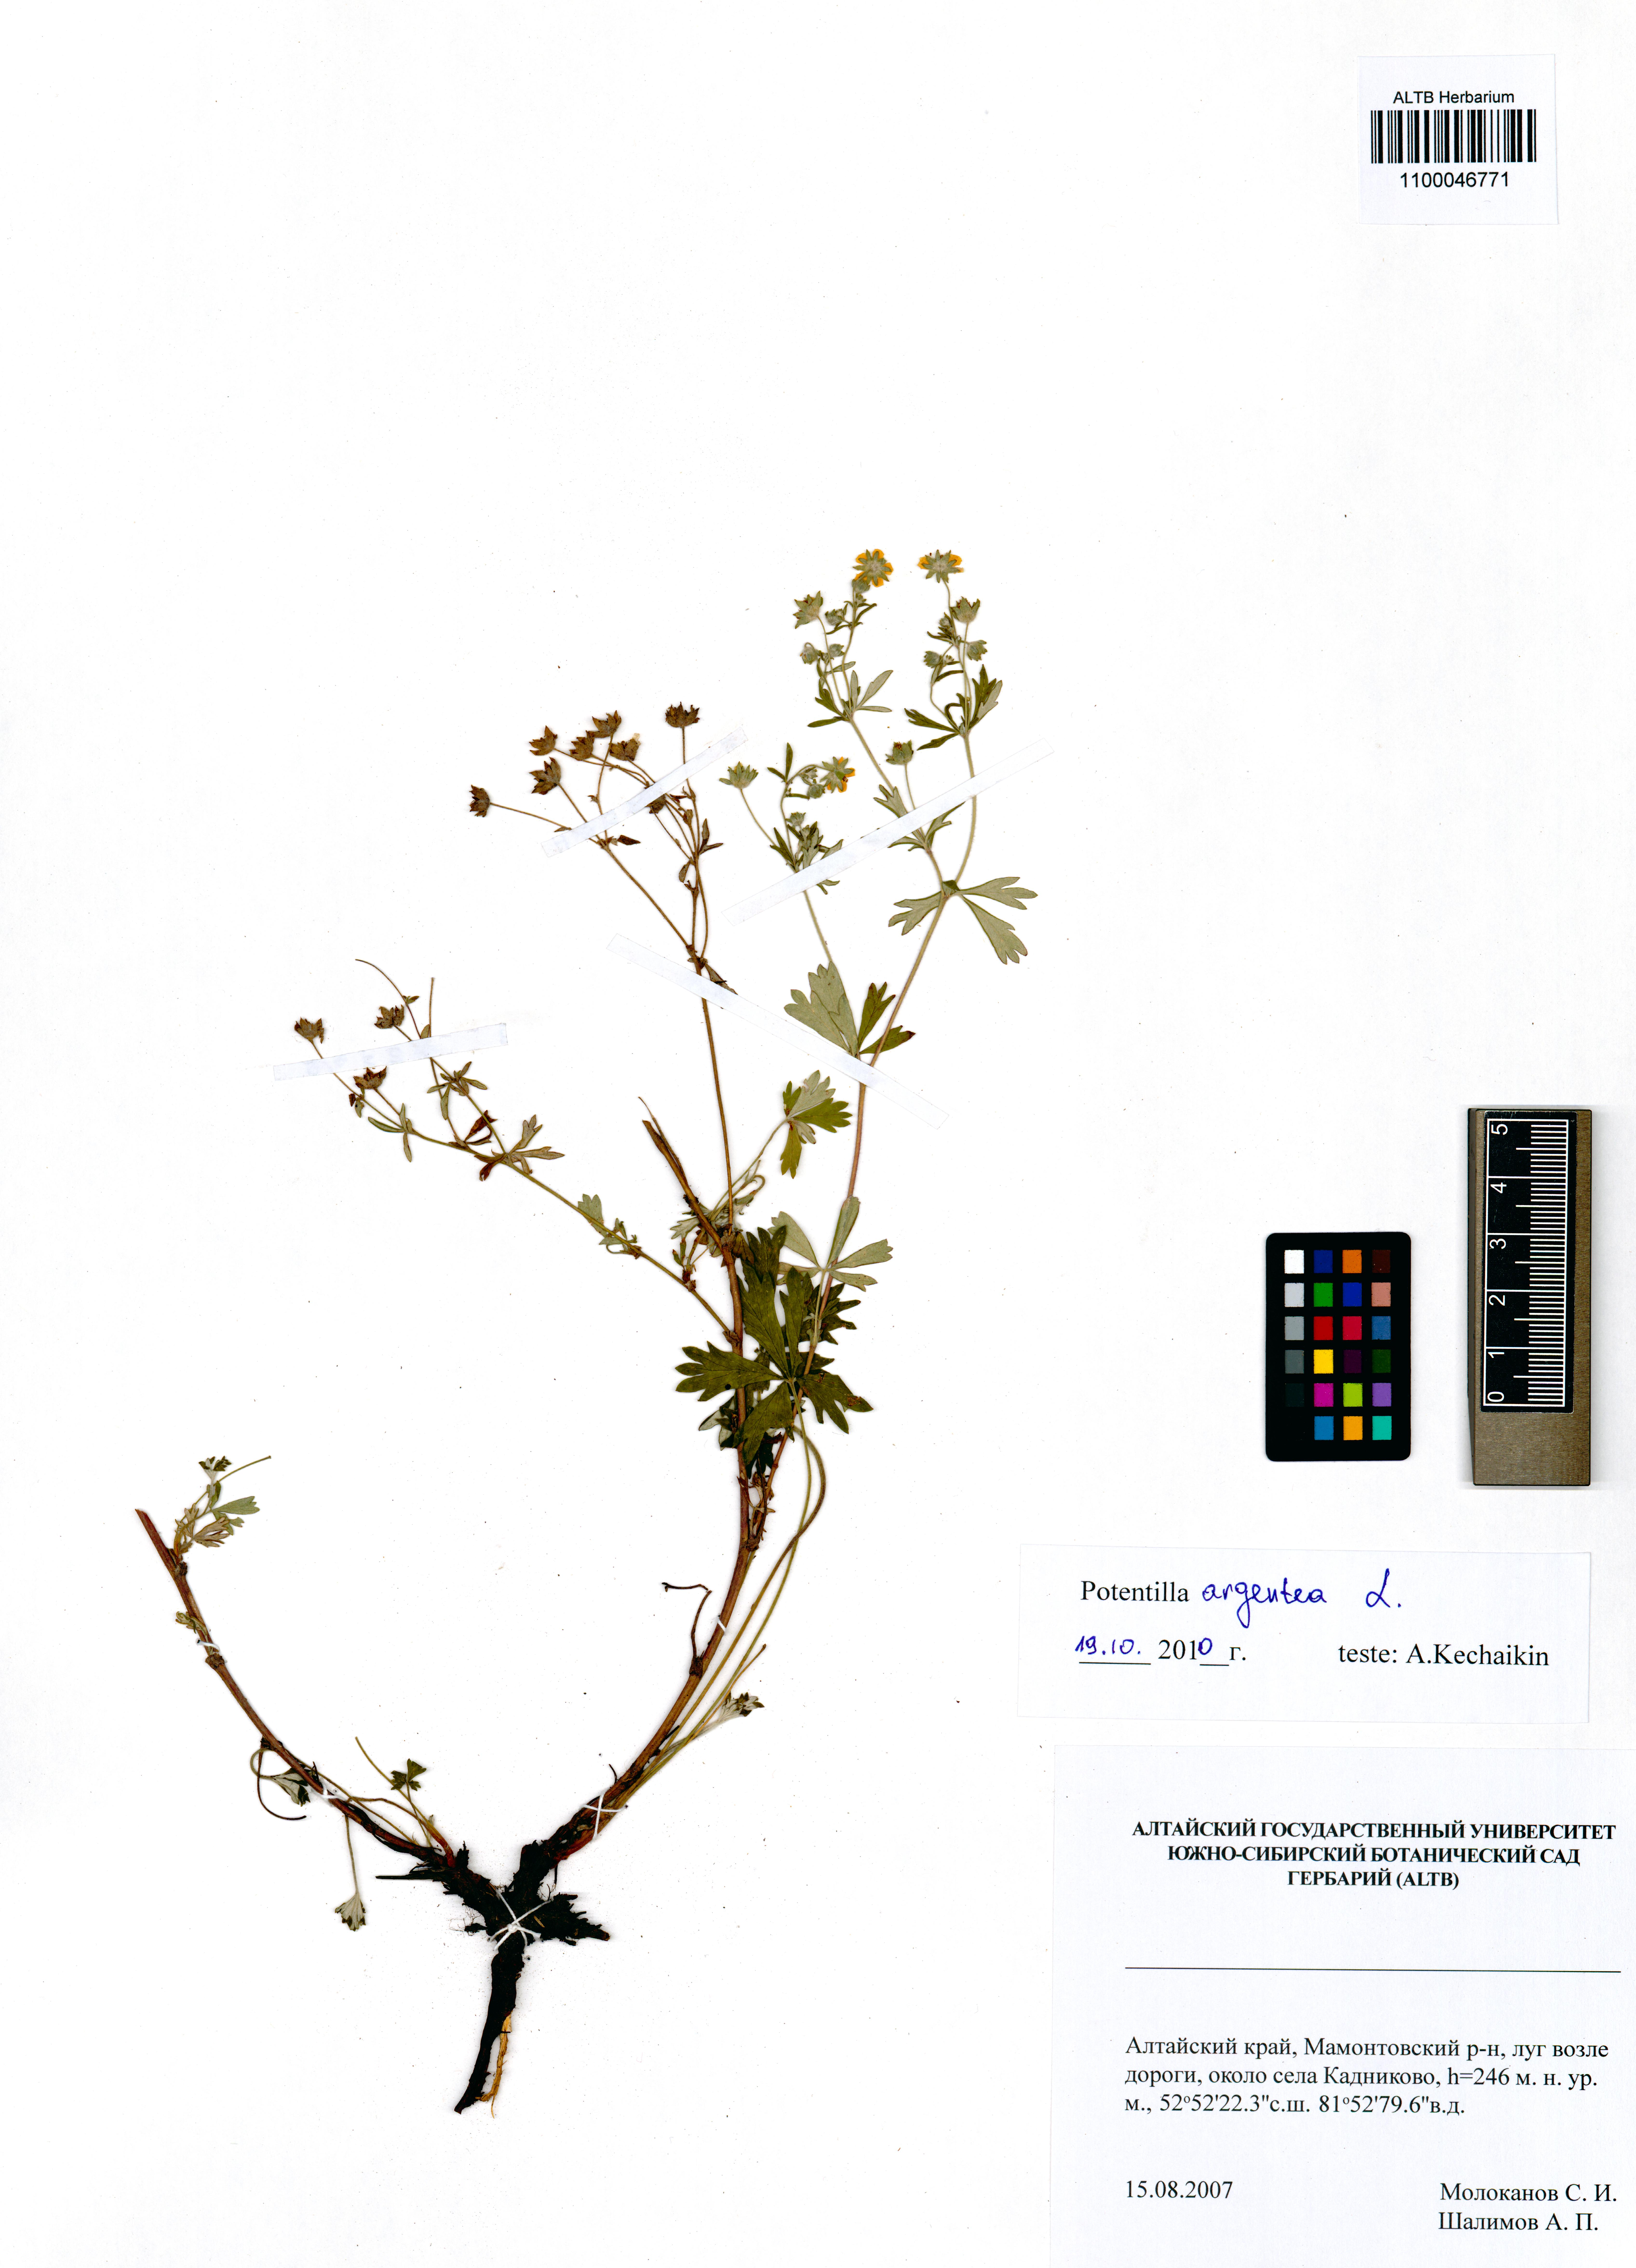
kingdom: Plantae
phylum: Tracheophyta
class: Magnoliopsida
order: Rosales
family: Rosaceae
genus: Potentilla
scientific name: Potentilla argentea
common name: Hoary cinquefoil
